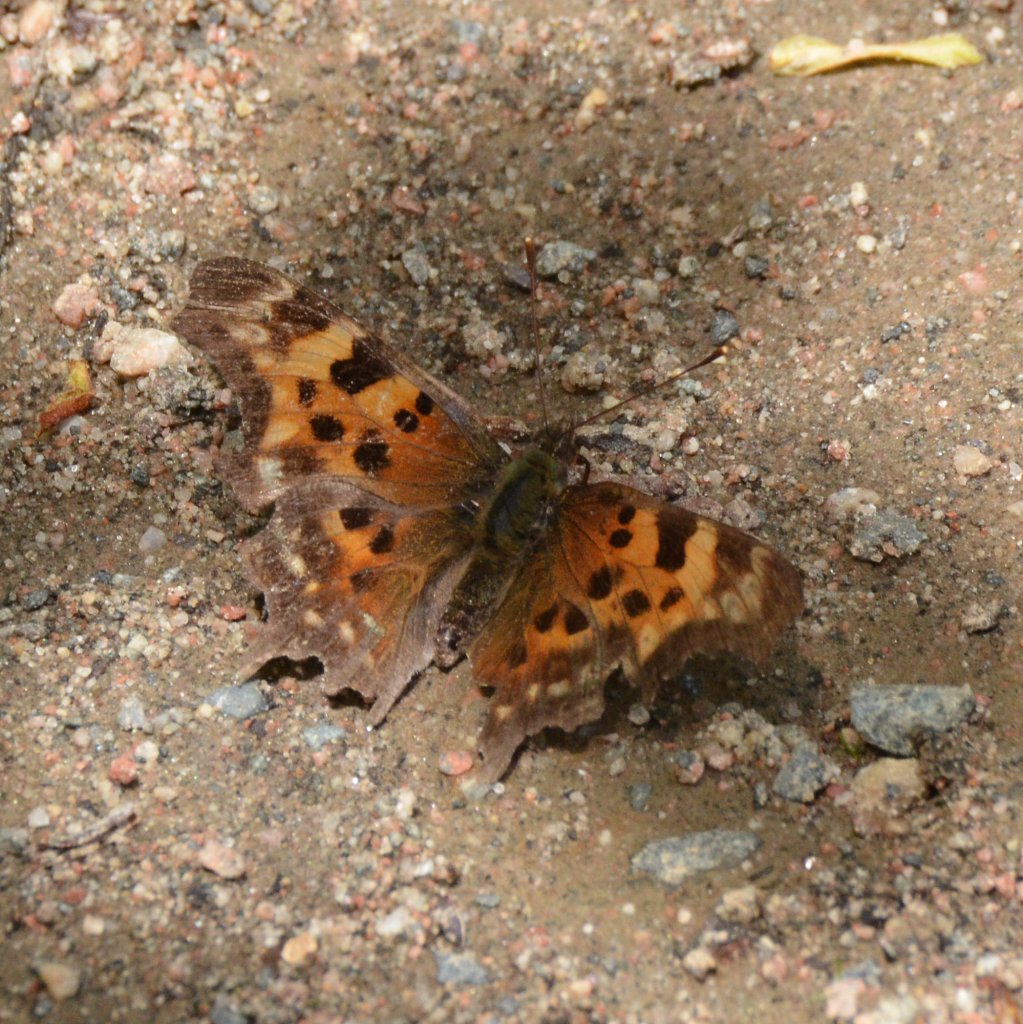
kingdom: Animalia
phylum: Arthropoda
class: Insecta
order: Lepidoptera
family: Nymphalidae
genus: Polygonia
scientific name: Polygonia faunus
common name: Green Comma
